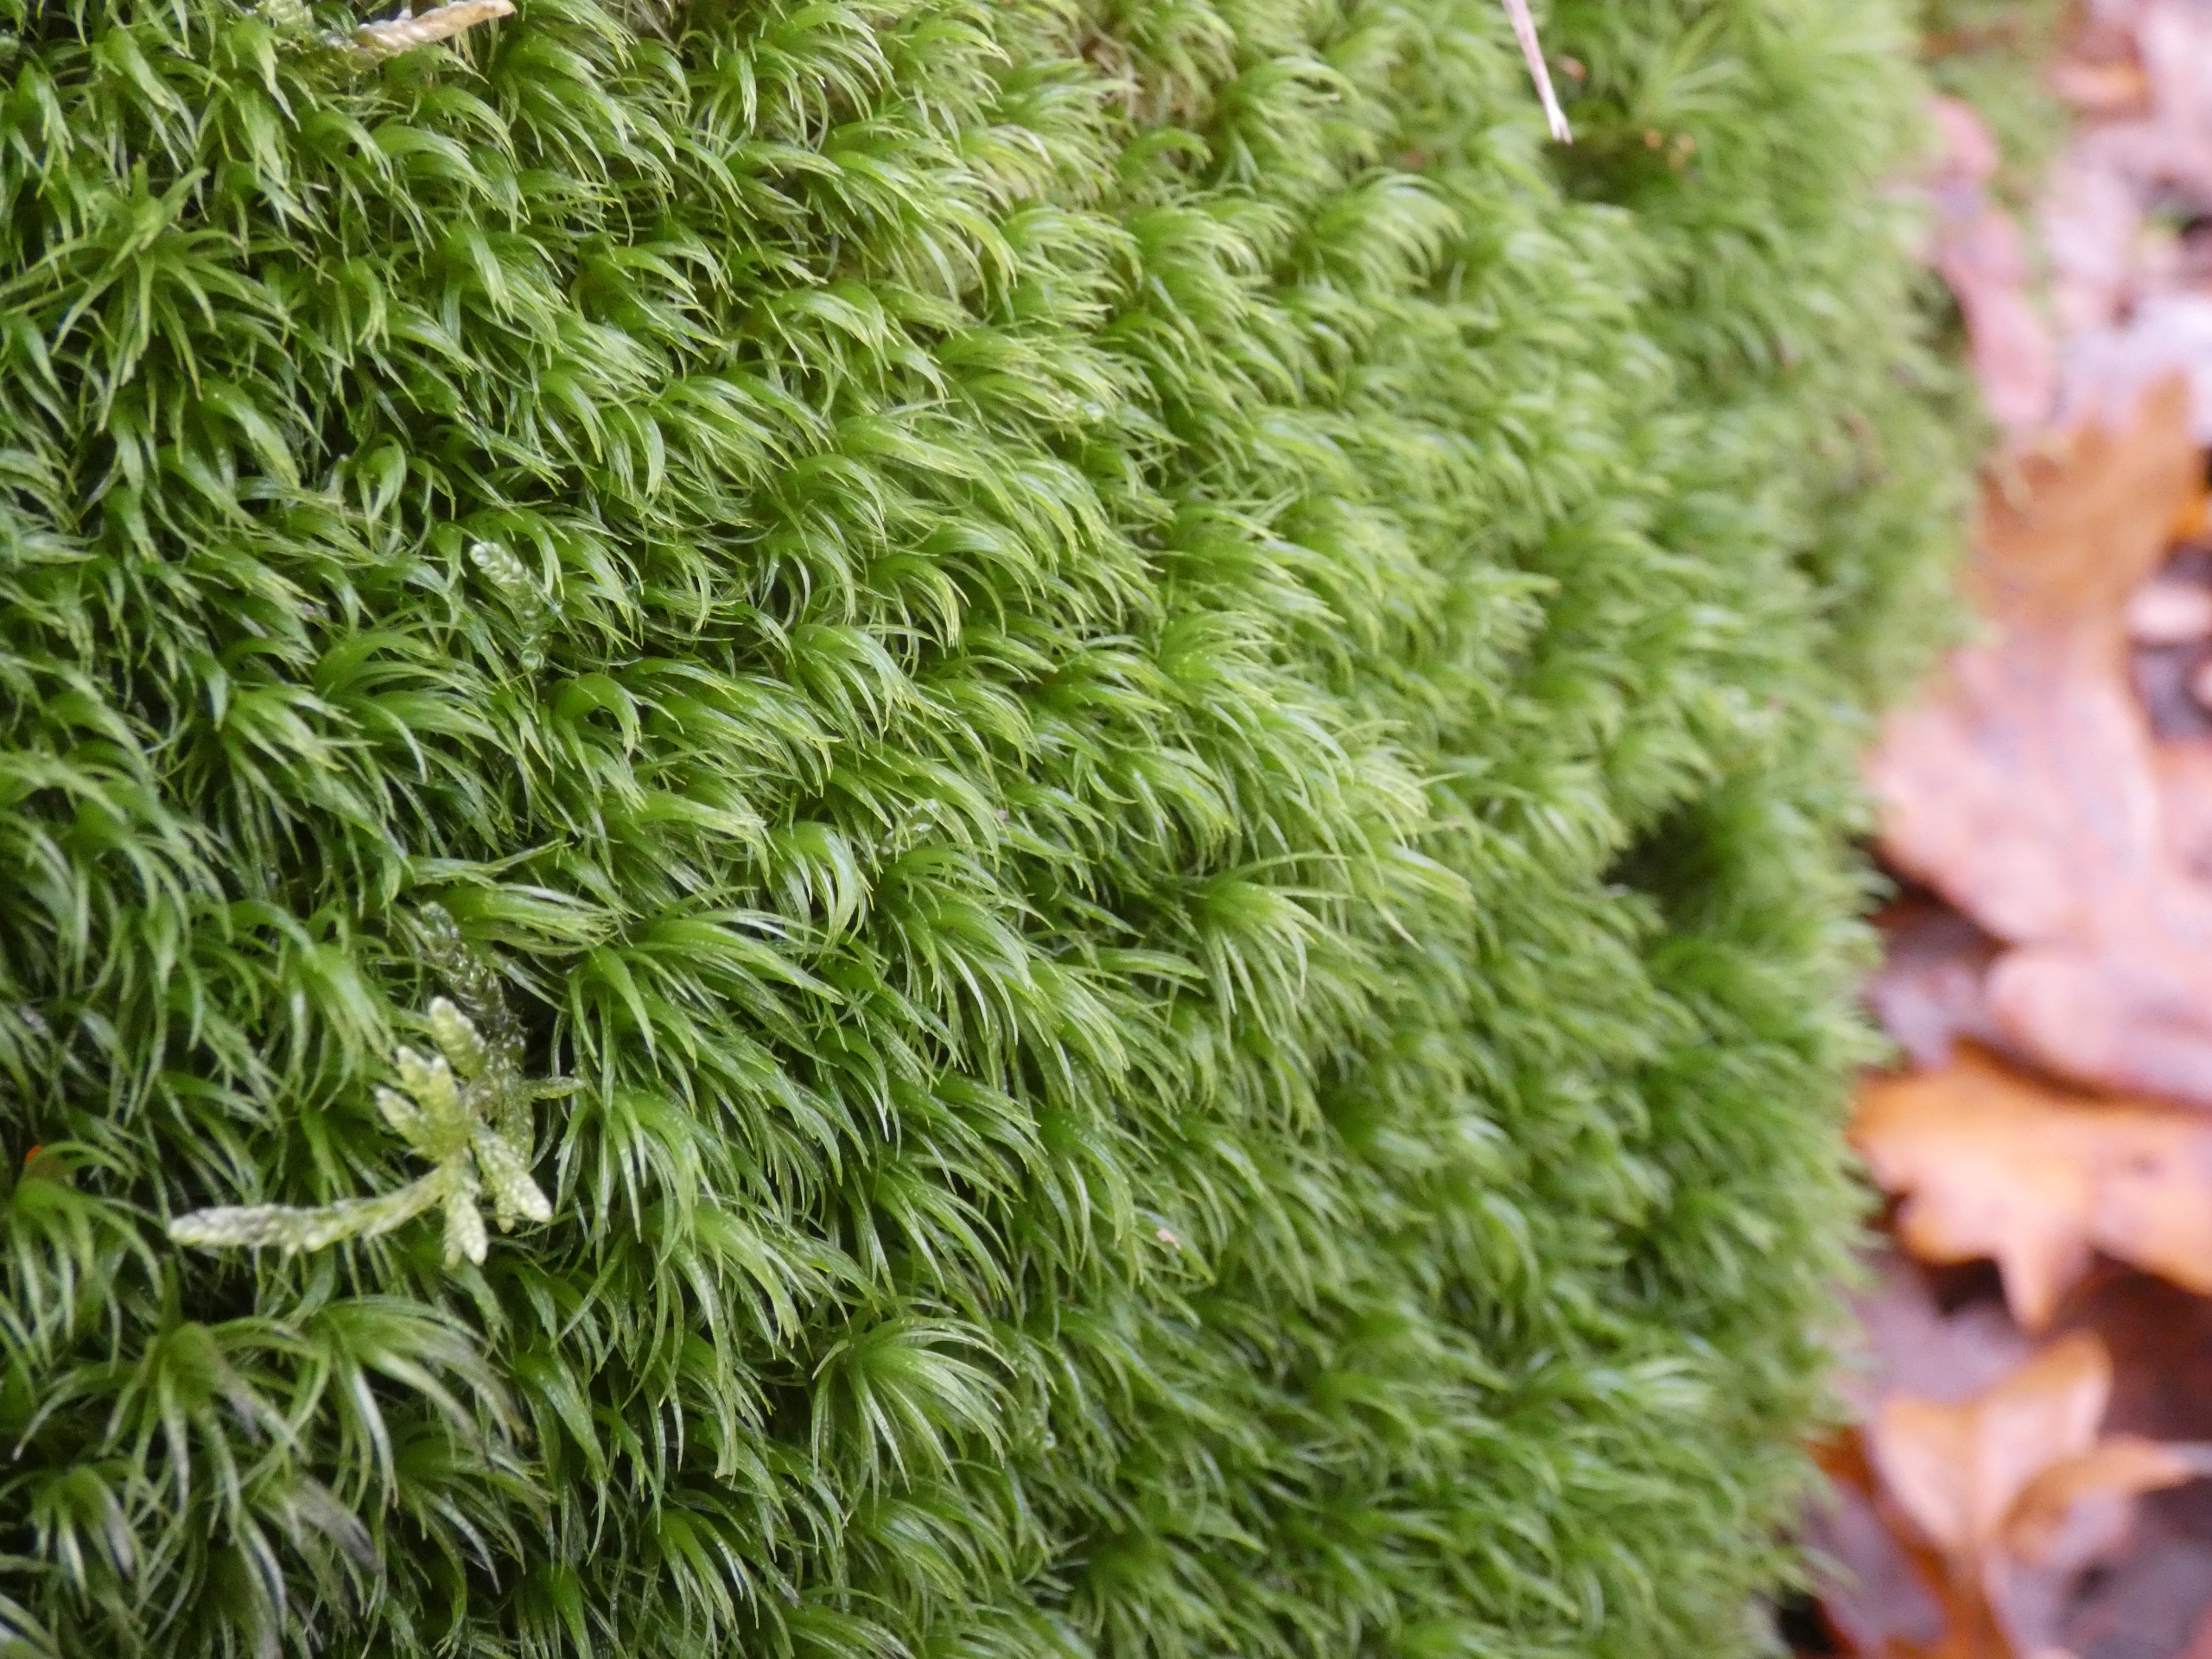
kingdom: Plantae
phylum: Bryophyta
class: Bryopsida
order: Dicranales
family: Dicranaceae
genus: Dicranum
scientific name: Dicranum scoparium
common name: Almindelig kløvtand
